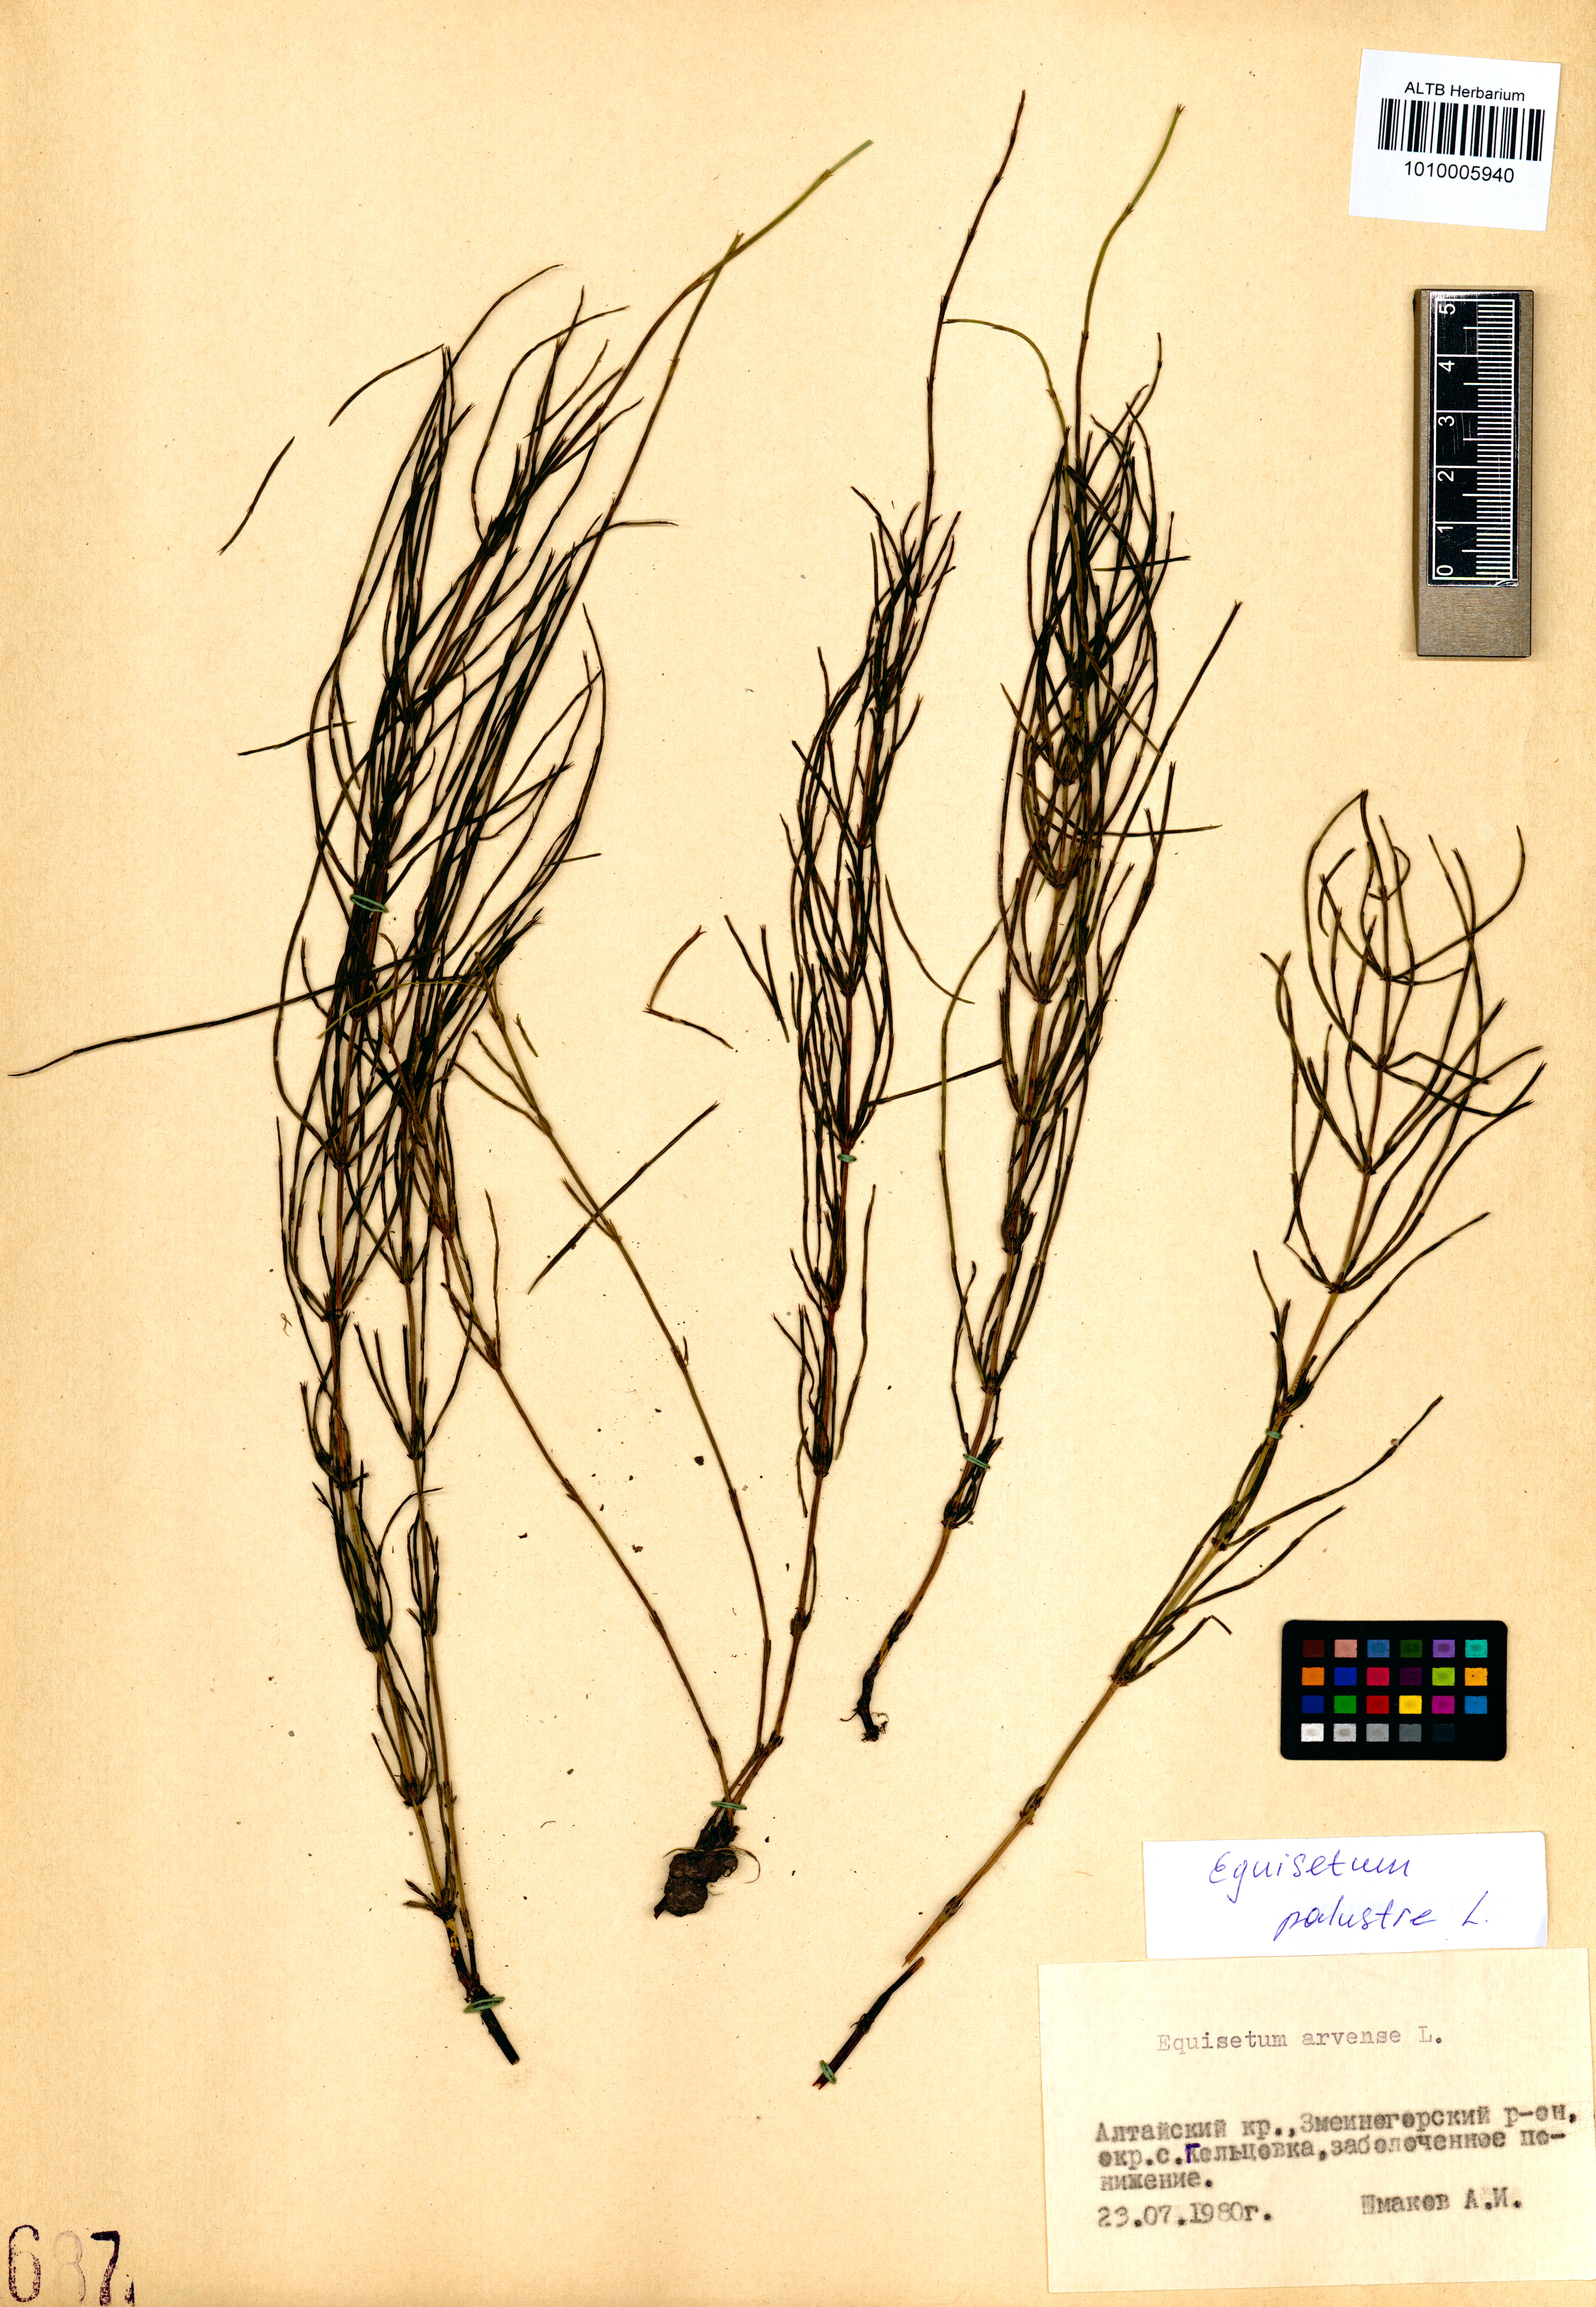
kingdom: Plantae
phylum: Tracheophyta
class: Polypodiopsida
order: Equisetales
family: Equisetaceae
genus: Equisetum
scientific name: Equisetum palustre
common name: Marsh horsetail
